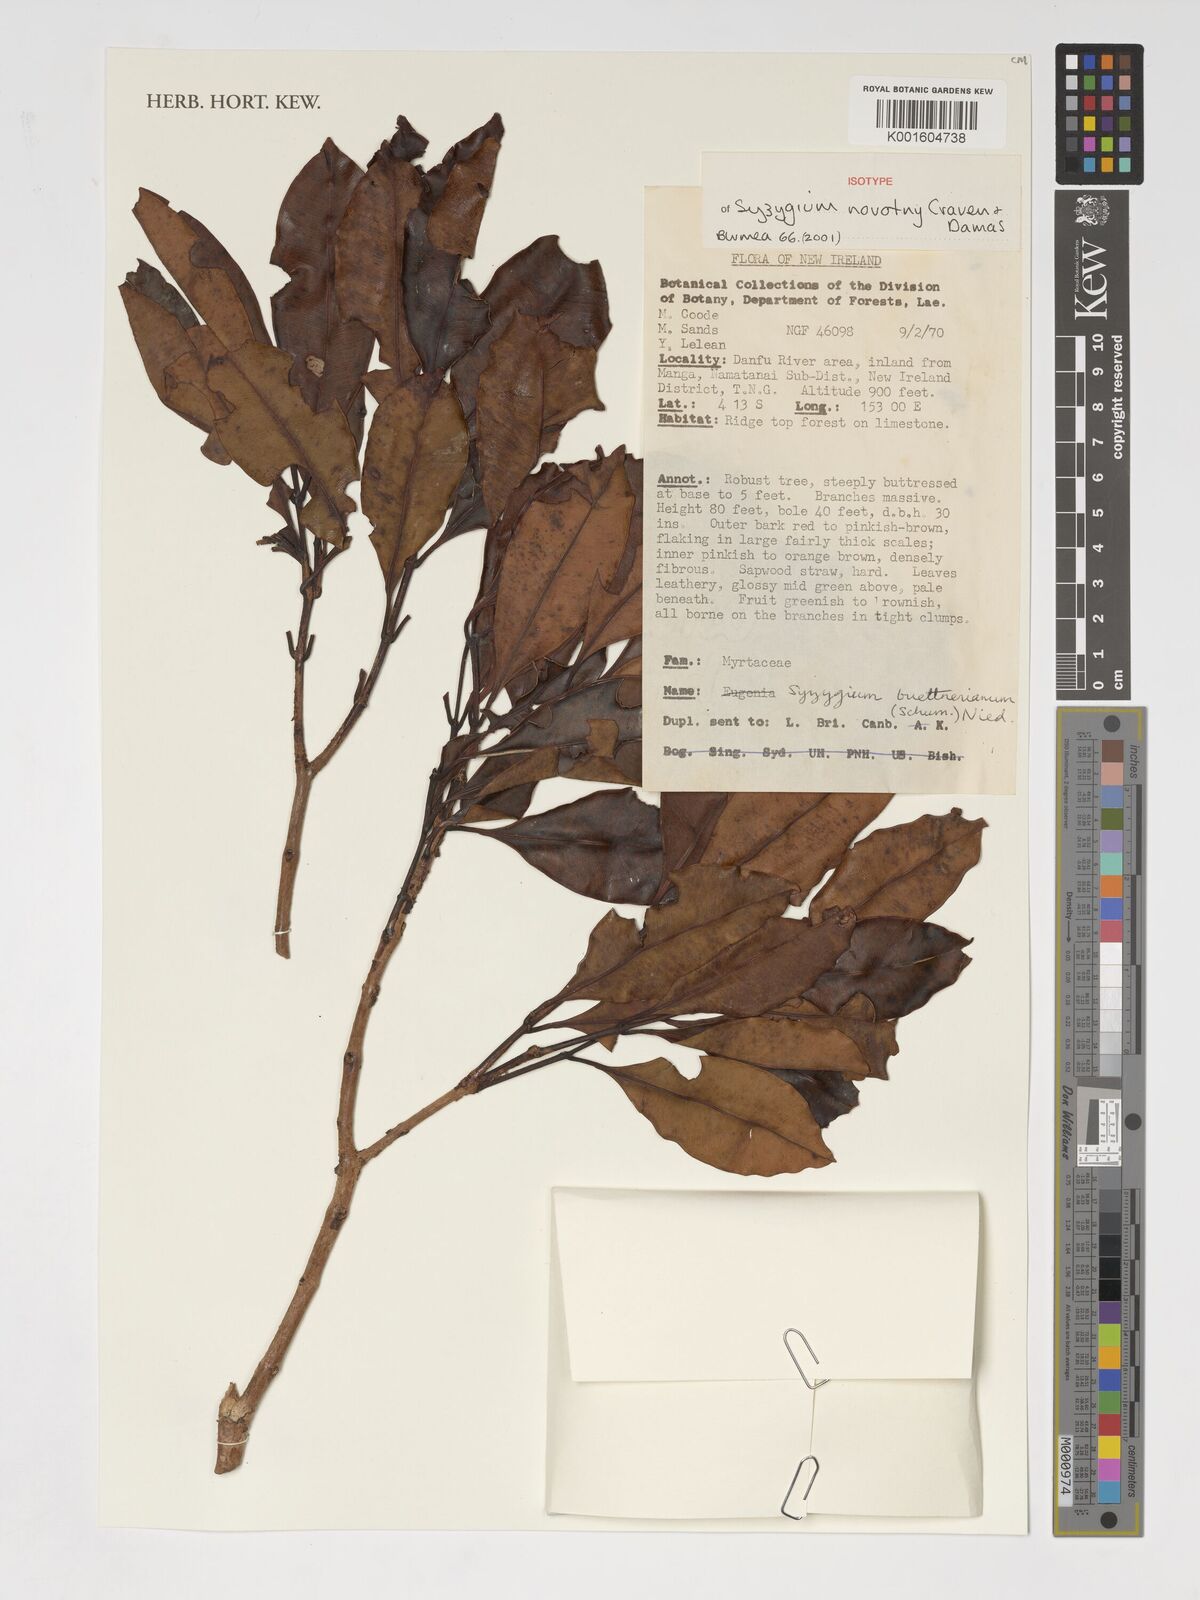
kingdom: Plantae
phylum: Tracheophyta
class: Magnoliopsida
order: Myrtales
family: Myrtaceae
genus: Syzygium
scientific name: Syzygium
